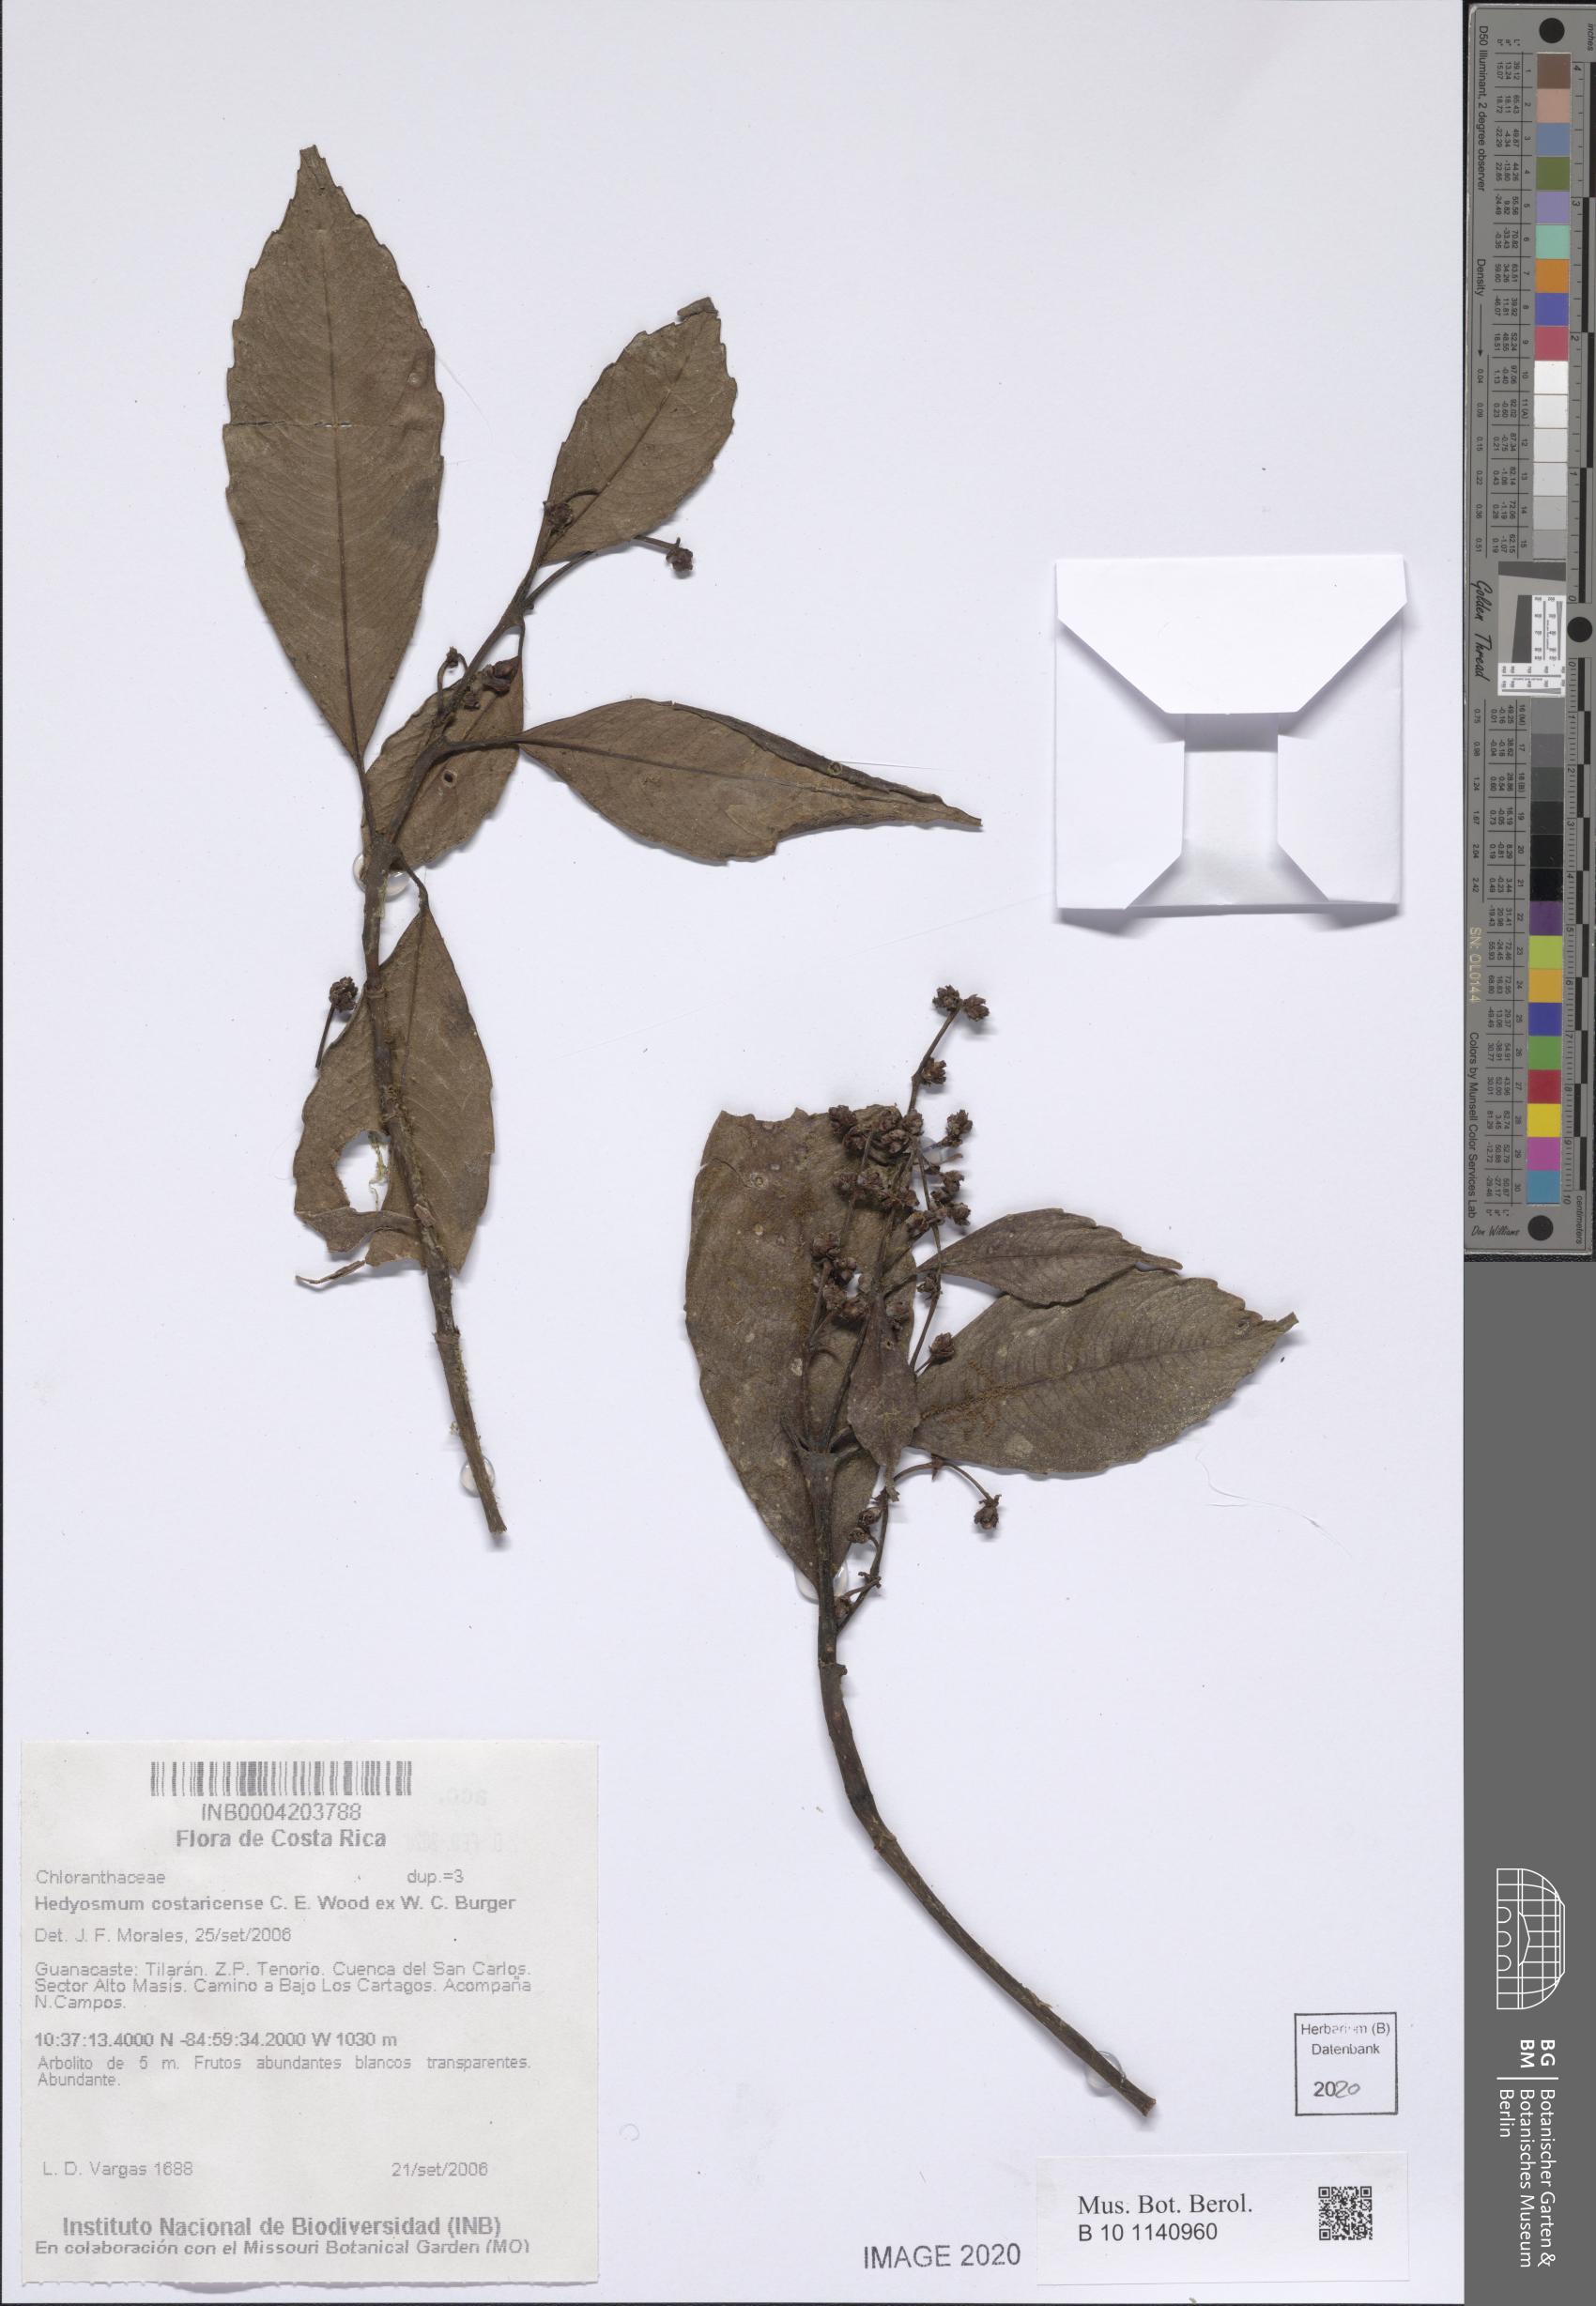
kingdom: Plantae
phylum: Tracheophyta
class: Magnoliopsida
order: Chloranthales
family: Chloranthaceae
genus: Hedyosmum
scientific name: Hedyosmum costaricense
